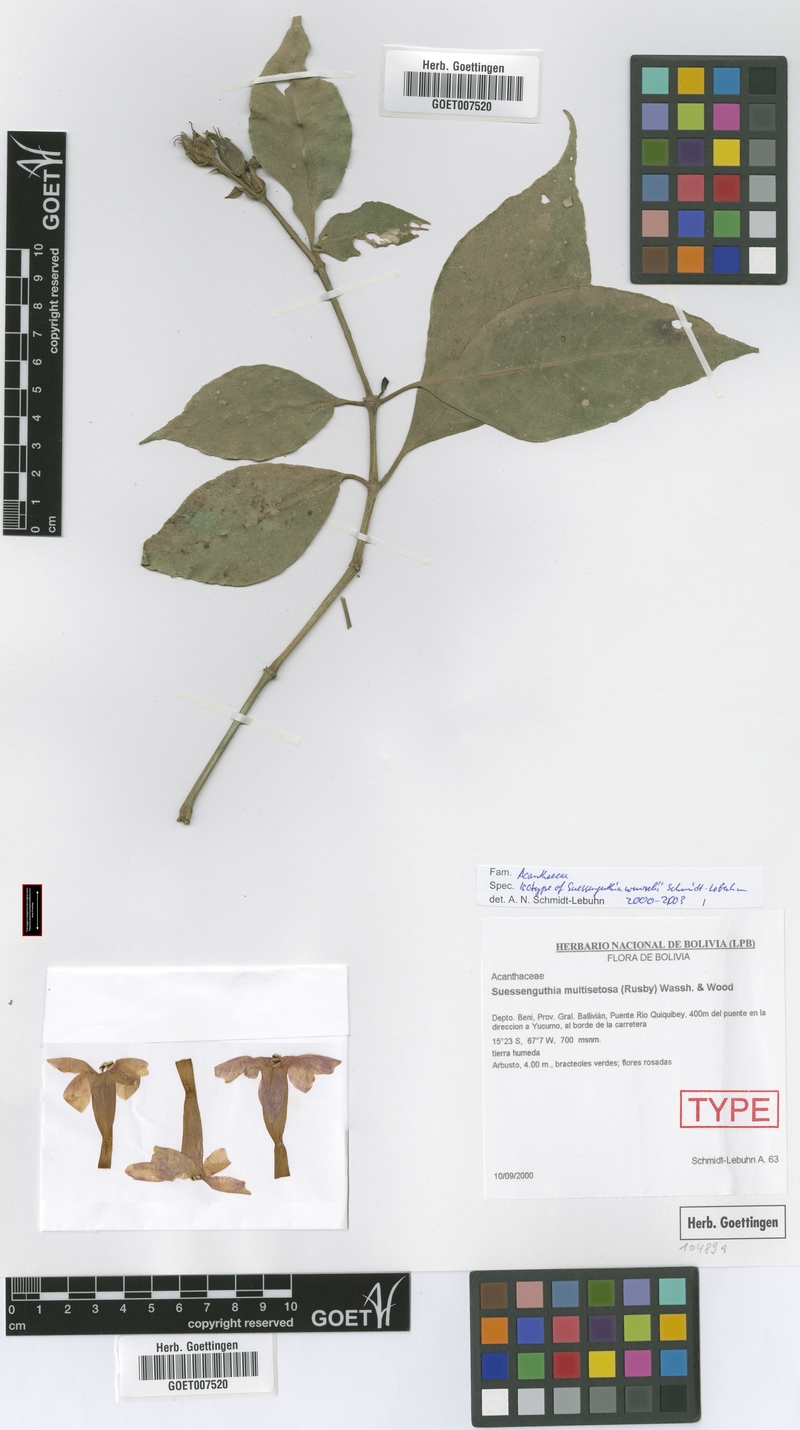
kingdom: Plantae
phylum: Tracheophyta
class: Magnoliopsida
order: Lamiales
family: Acanthaceae
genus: Suessenguthia
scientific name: Suessenguthia wenzelii
